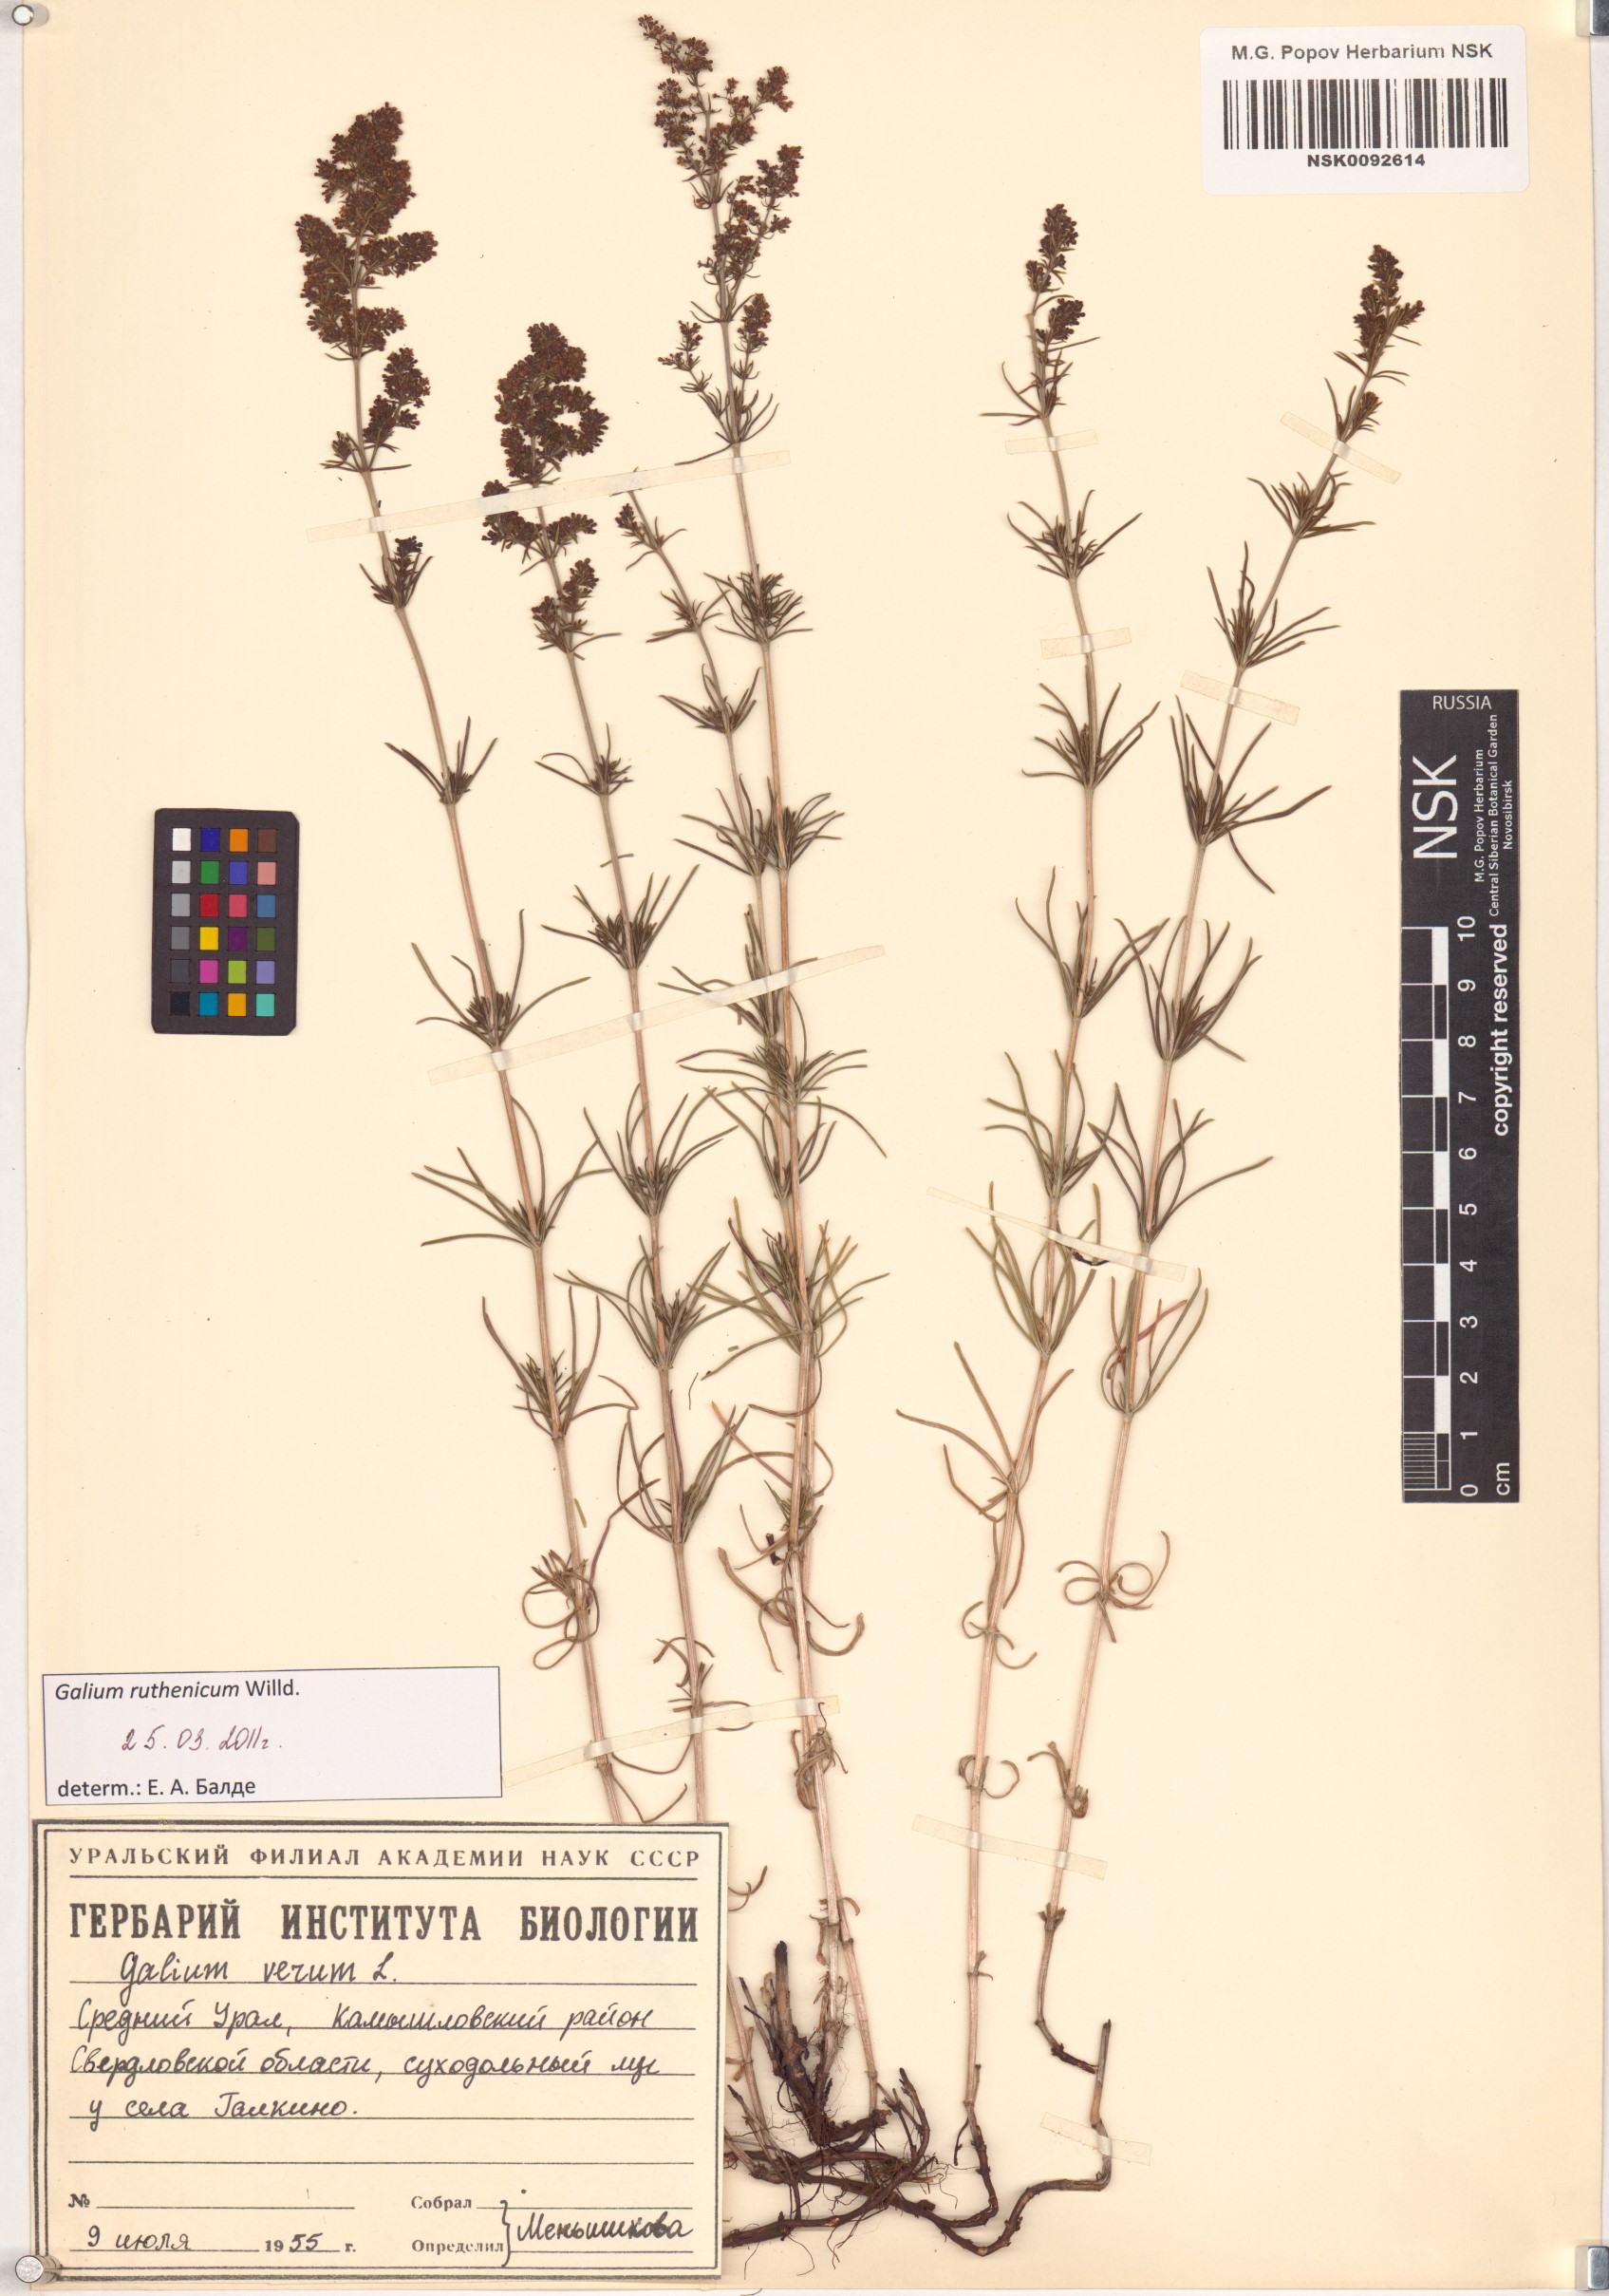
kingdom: Plantae
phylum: Tracheophyta
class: Magnoliopsida
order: Gentianales
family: Rubiaceae
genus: Galium
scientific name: Galium verum
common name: Lady's bedstraw
